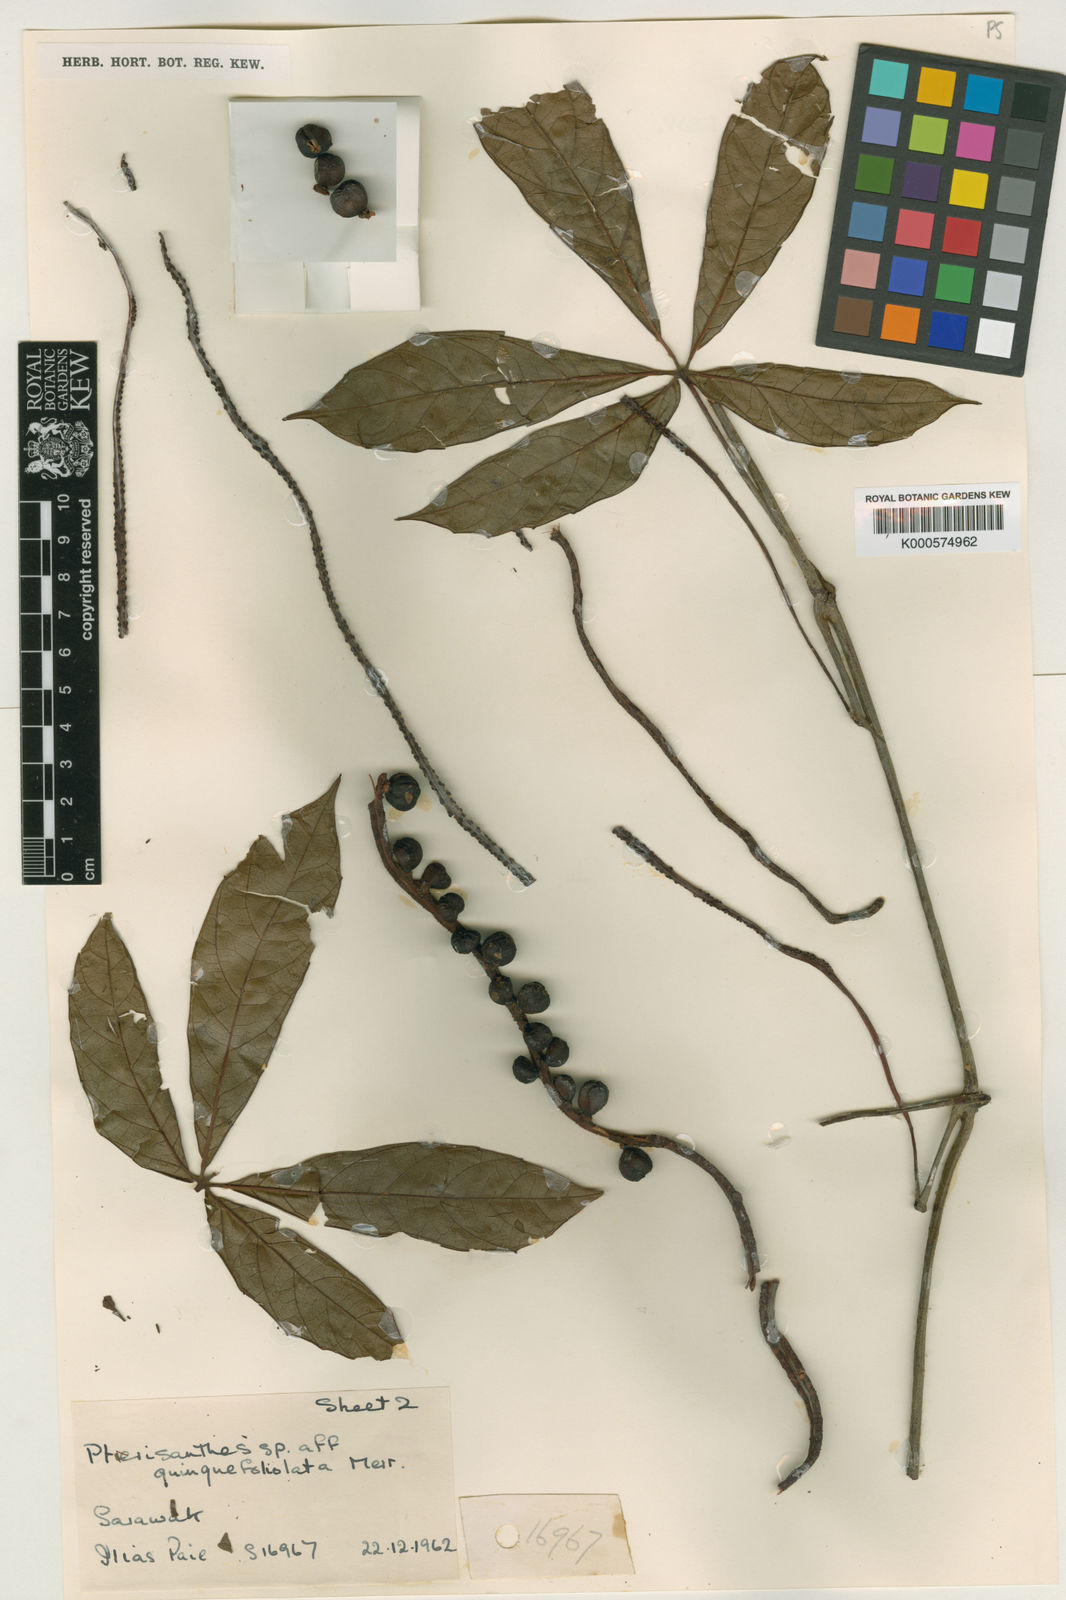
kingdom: Plantae
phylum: Tracheophyta
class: Magnoliopsida
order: Vitales
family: Vitaceae
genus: Pterisanthes
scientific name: Pterisanthes quinquefoliolata
